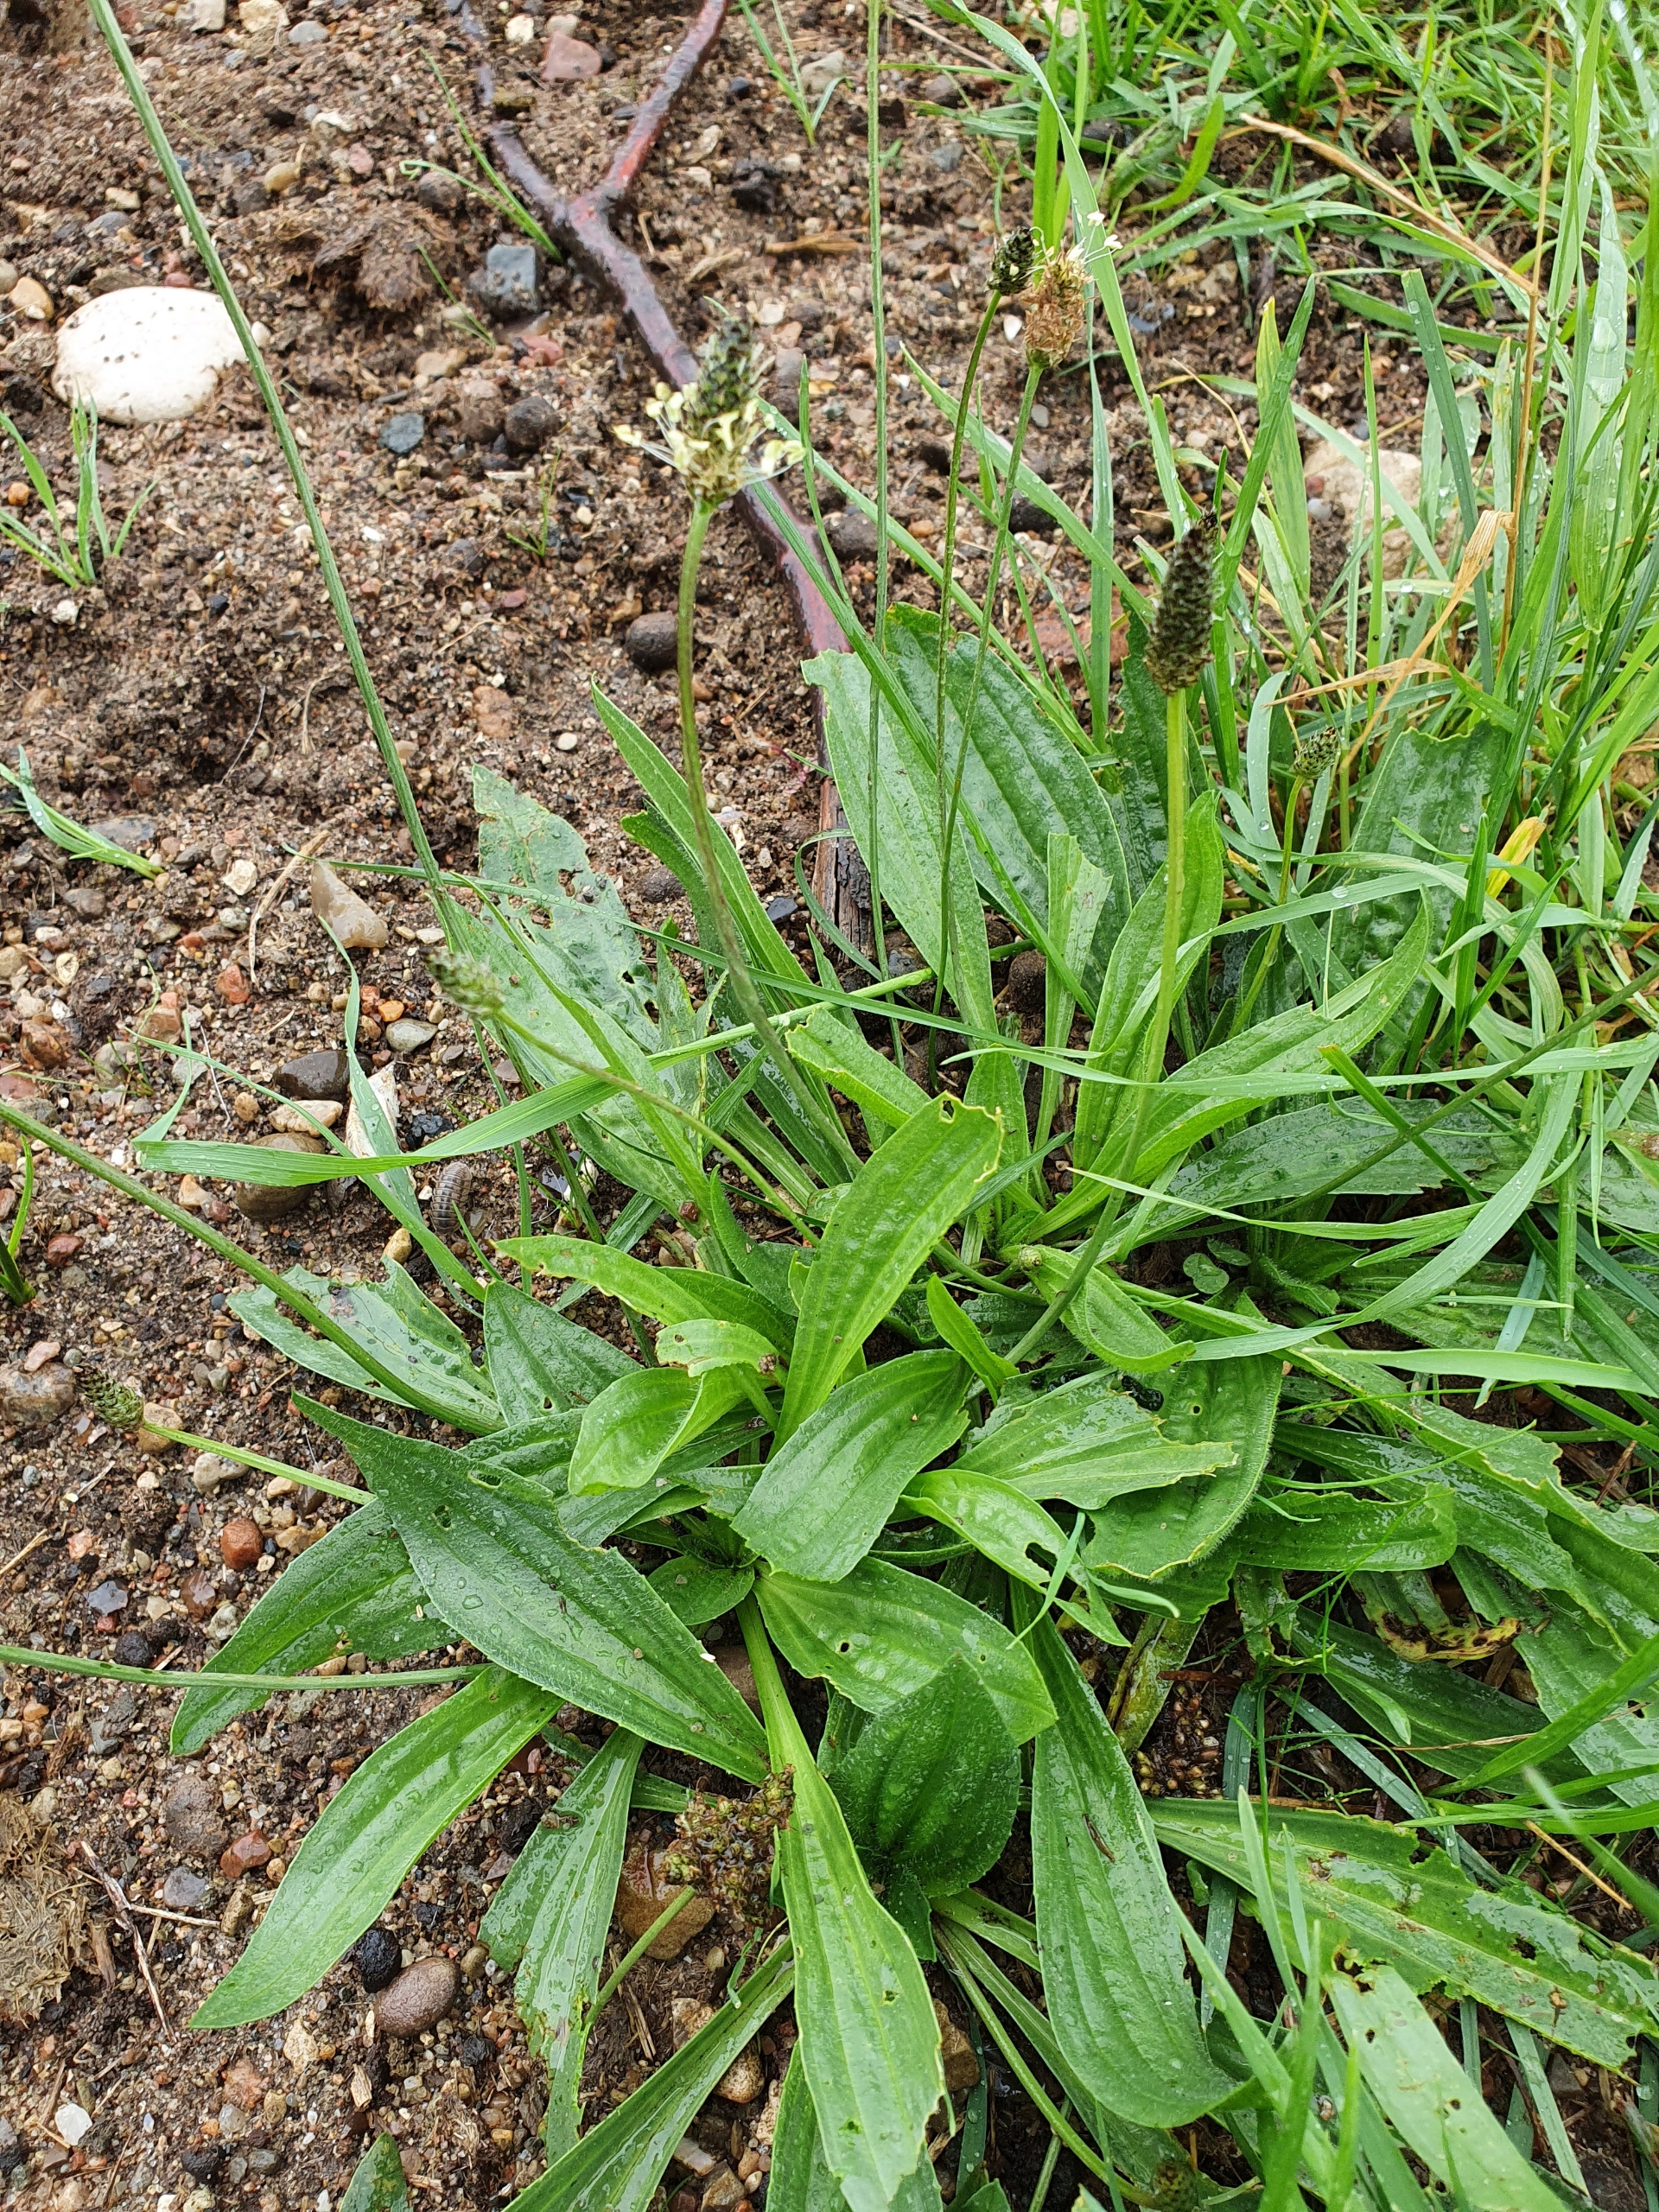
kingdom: Plantae
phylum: Tracheophyta
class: Magnoliopsida
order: Lamiales
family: Plantaginaceae
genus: Plantago
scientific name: Plantago lanceolata
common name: Lancet-vejbred
